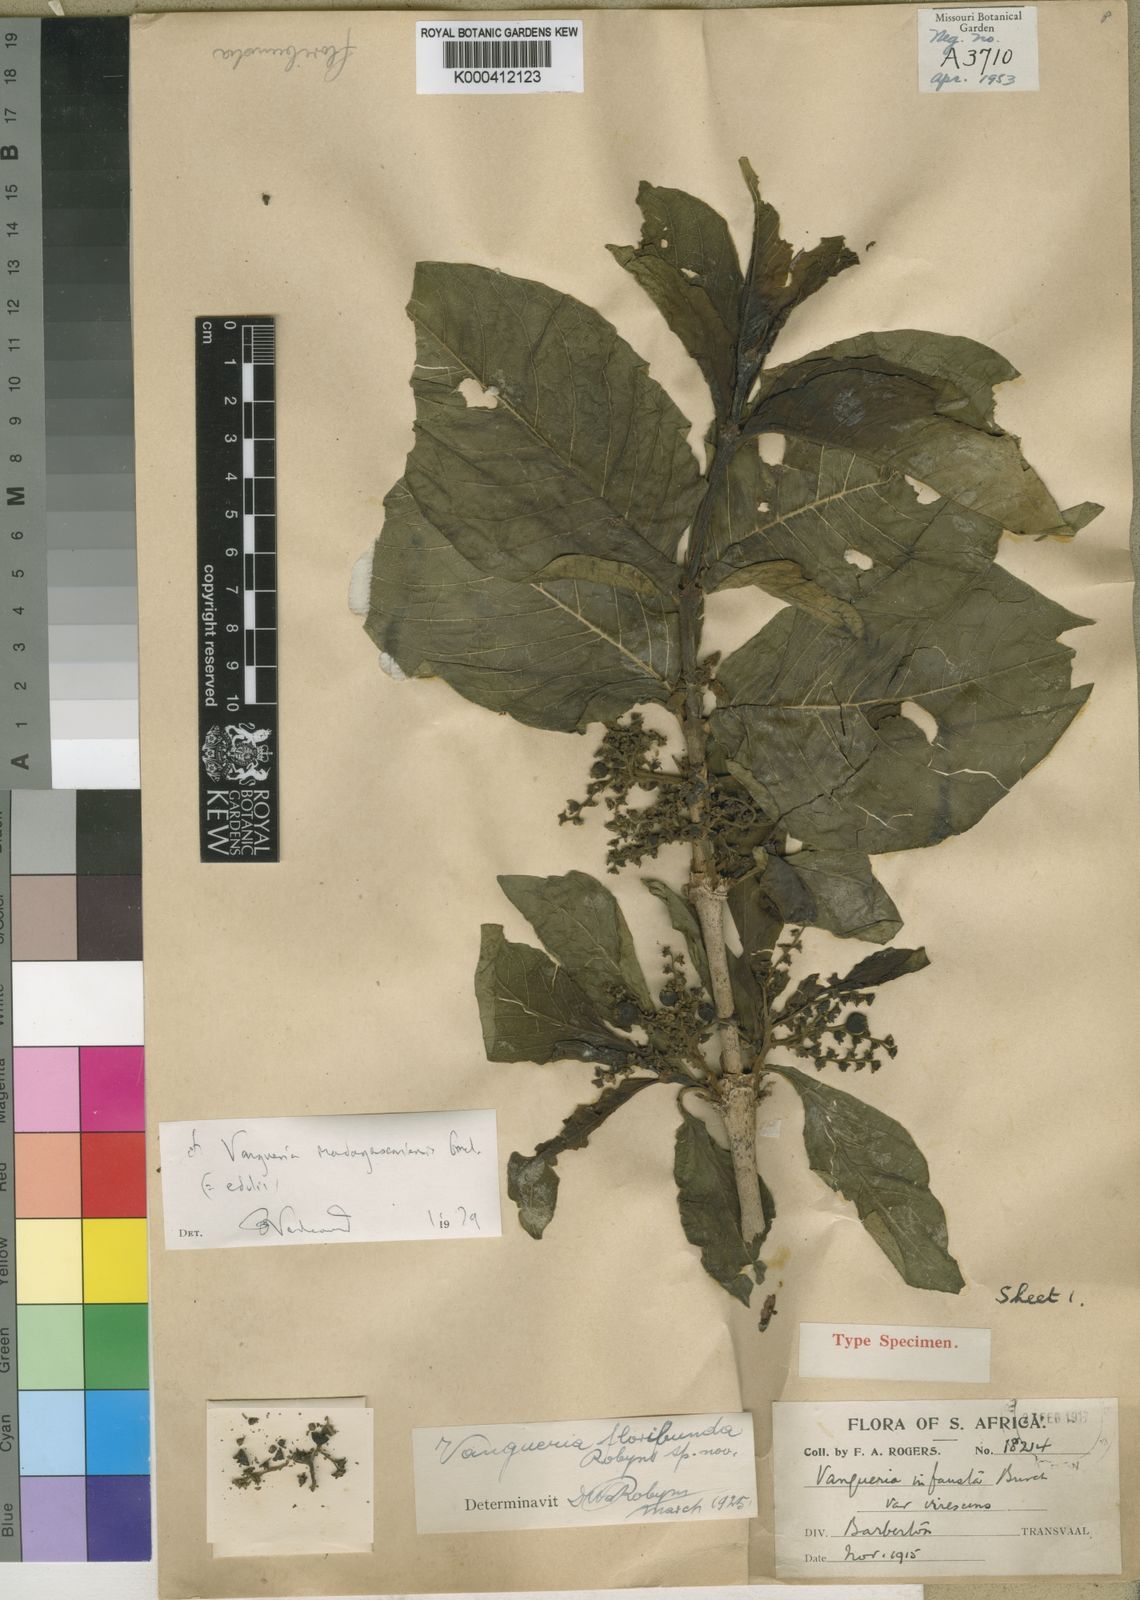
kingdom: Plantae
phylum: Tracheophyta
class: Magnoliopsida
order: Gentianales
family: Rubiaceae
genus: Vangueria
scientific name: Vangueria madagascariensis
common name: Smooth wild-medlar
